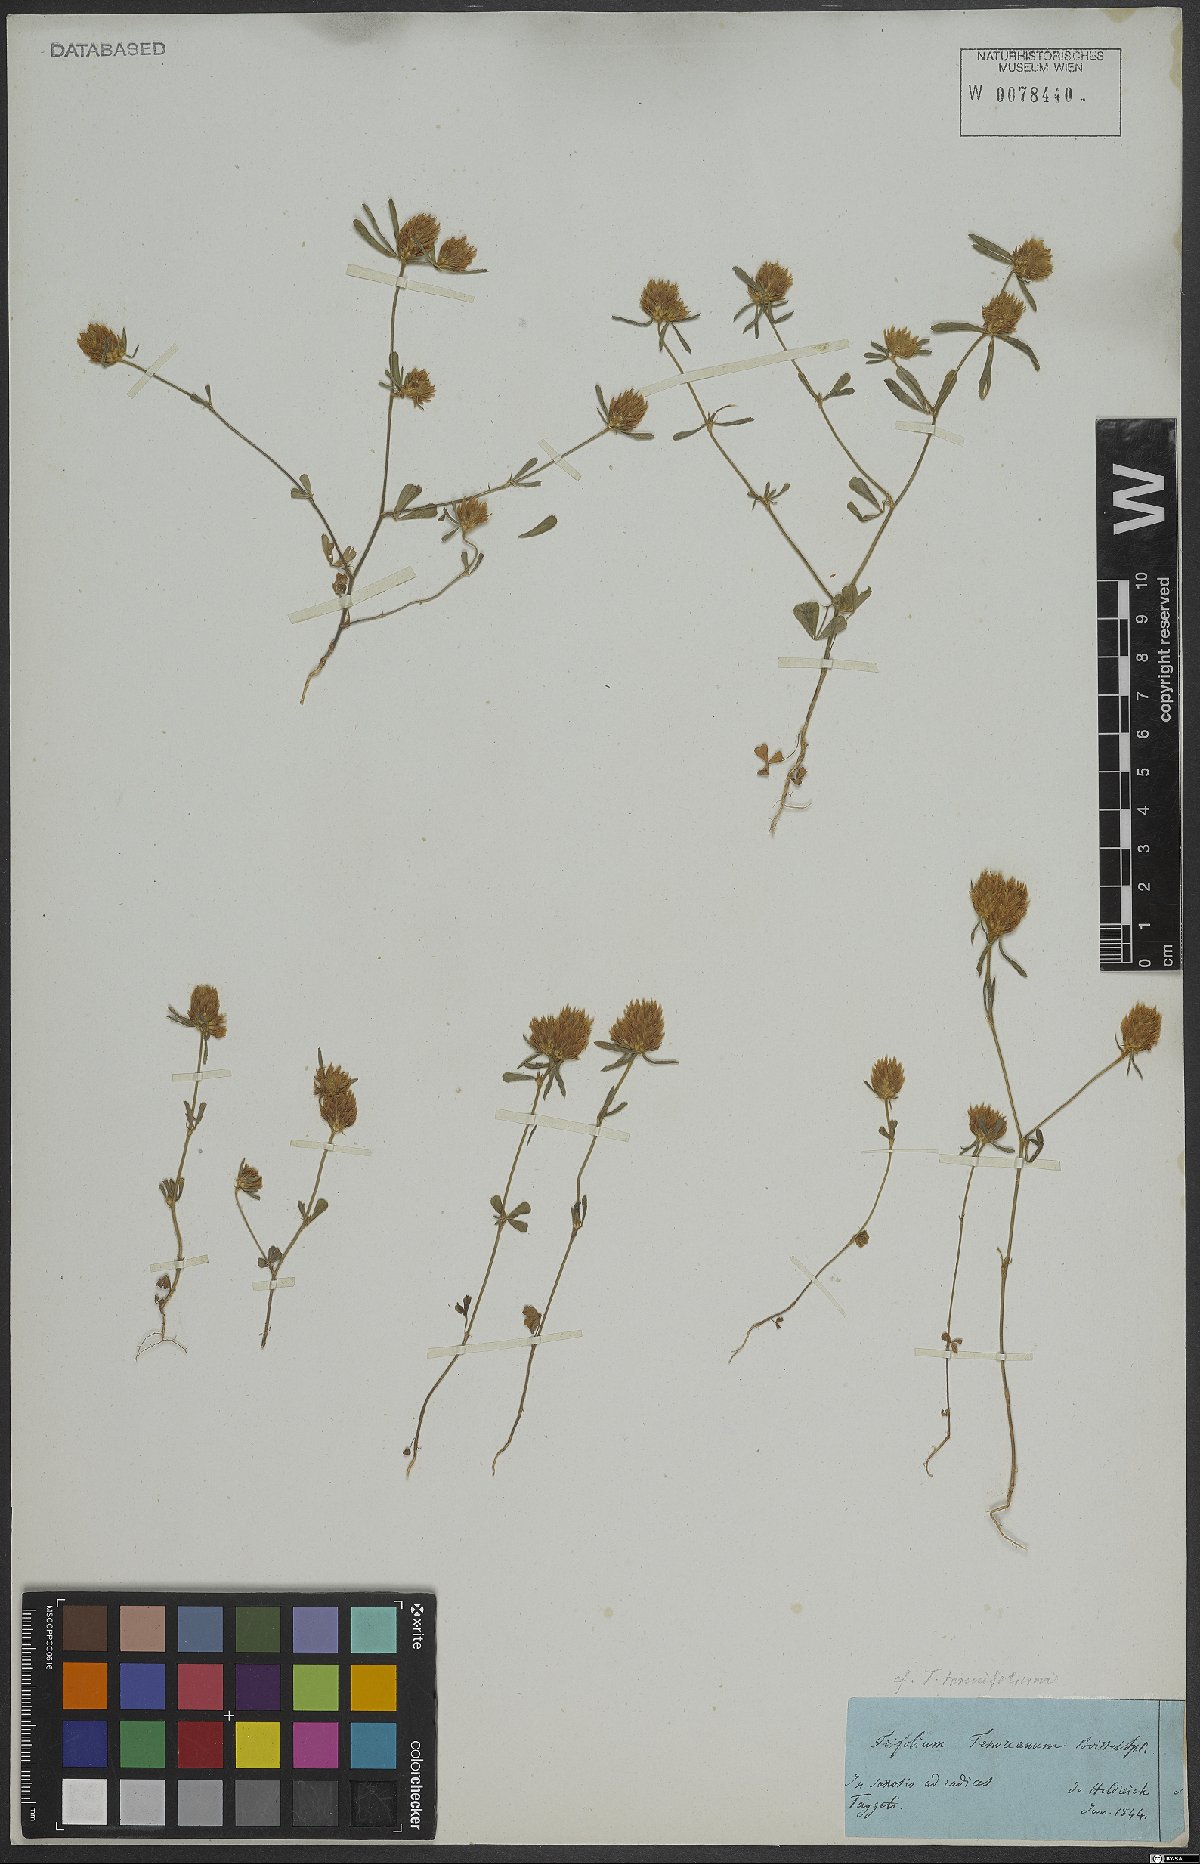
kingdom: Plantae
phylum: Tracheophyta
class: Magnoliopsida
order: Fabales
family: Fabaceae
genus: Trifolium
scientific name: Trifolium tenuifolium
